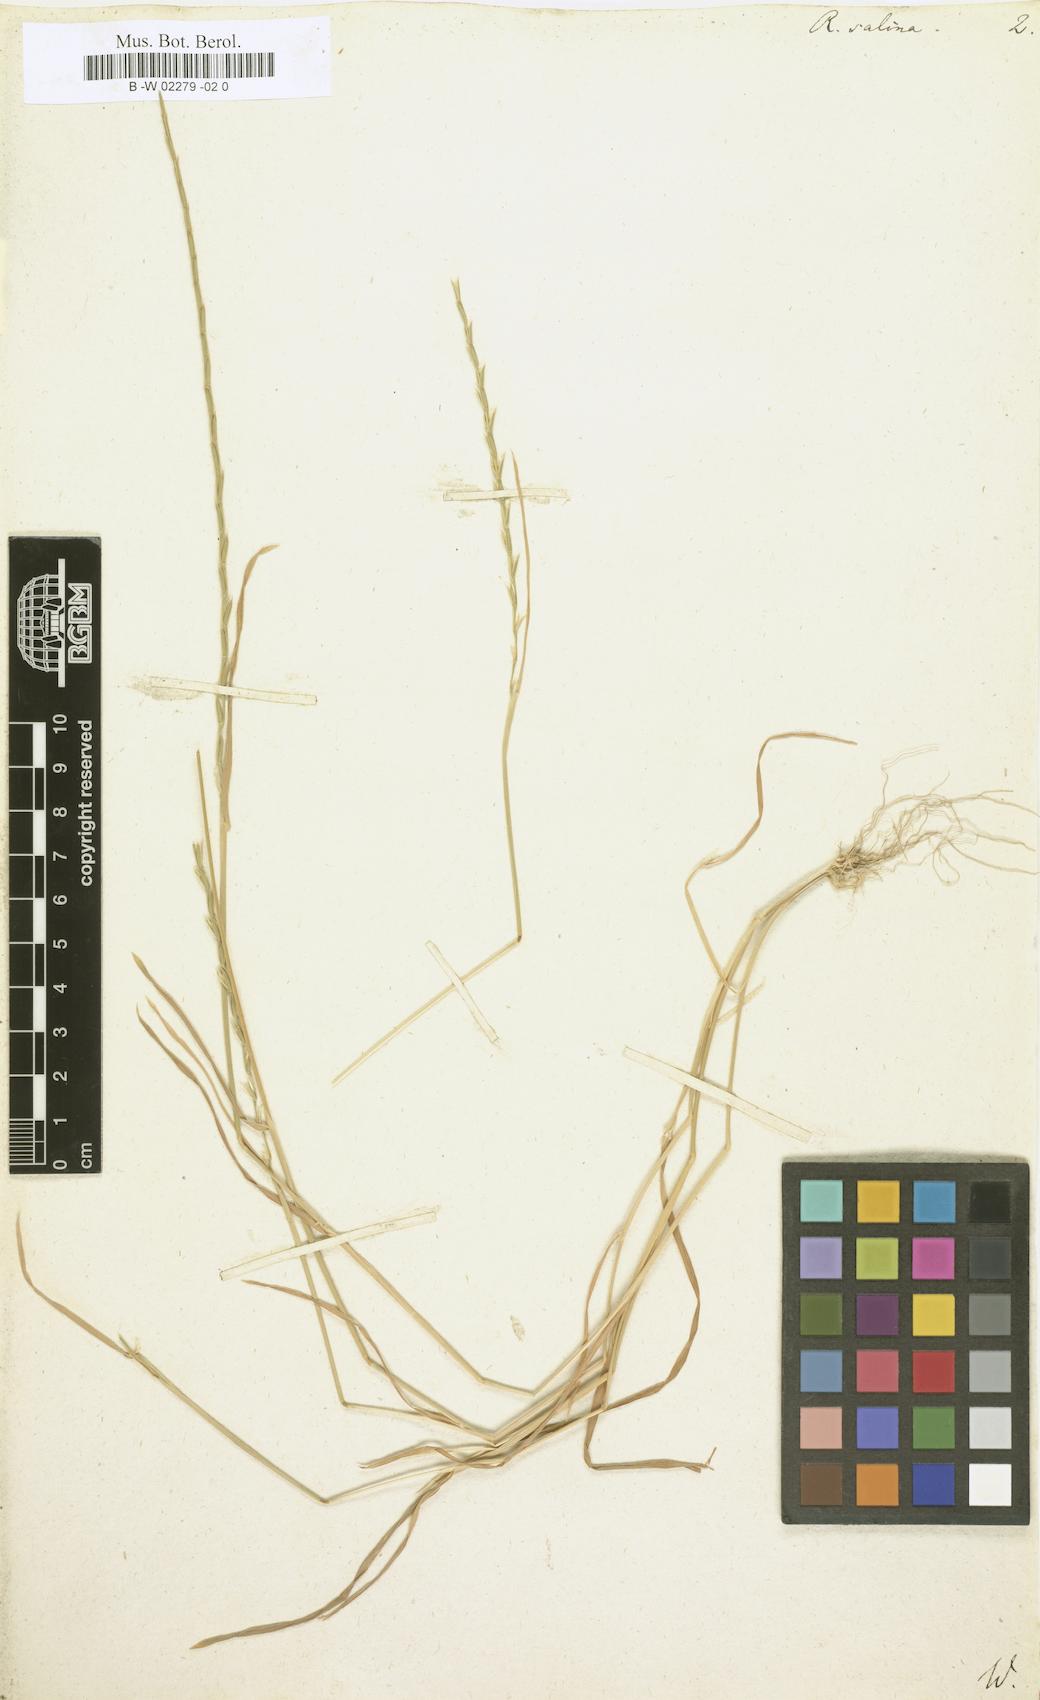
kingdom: Plantae
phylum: Tracheophyta
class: Liliopsida
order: Poales
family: Poaceae
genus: Pholiurus
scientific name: Pholiurus pannonicus
